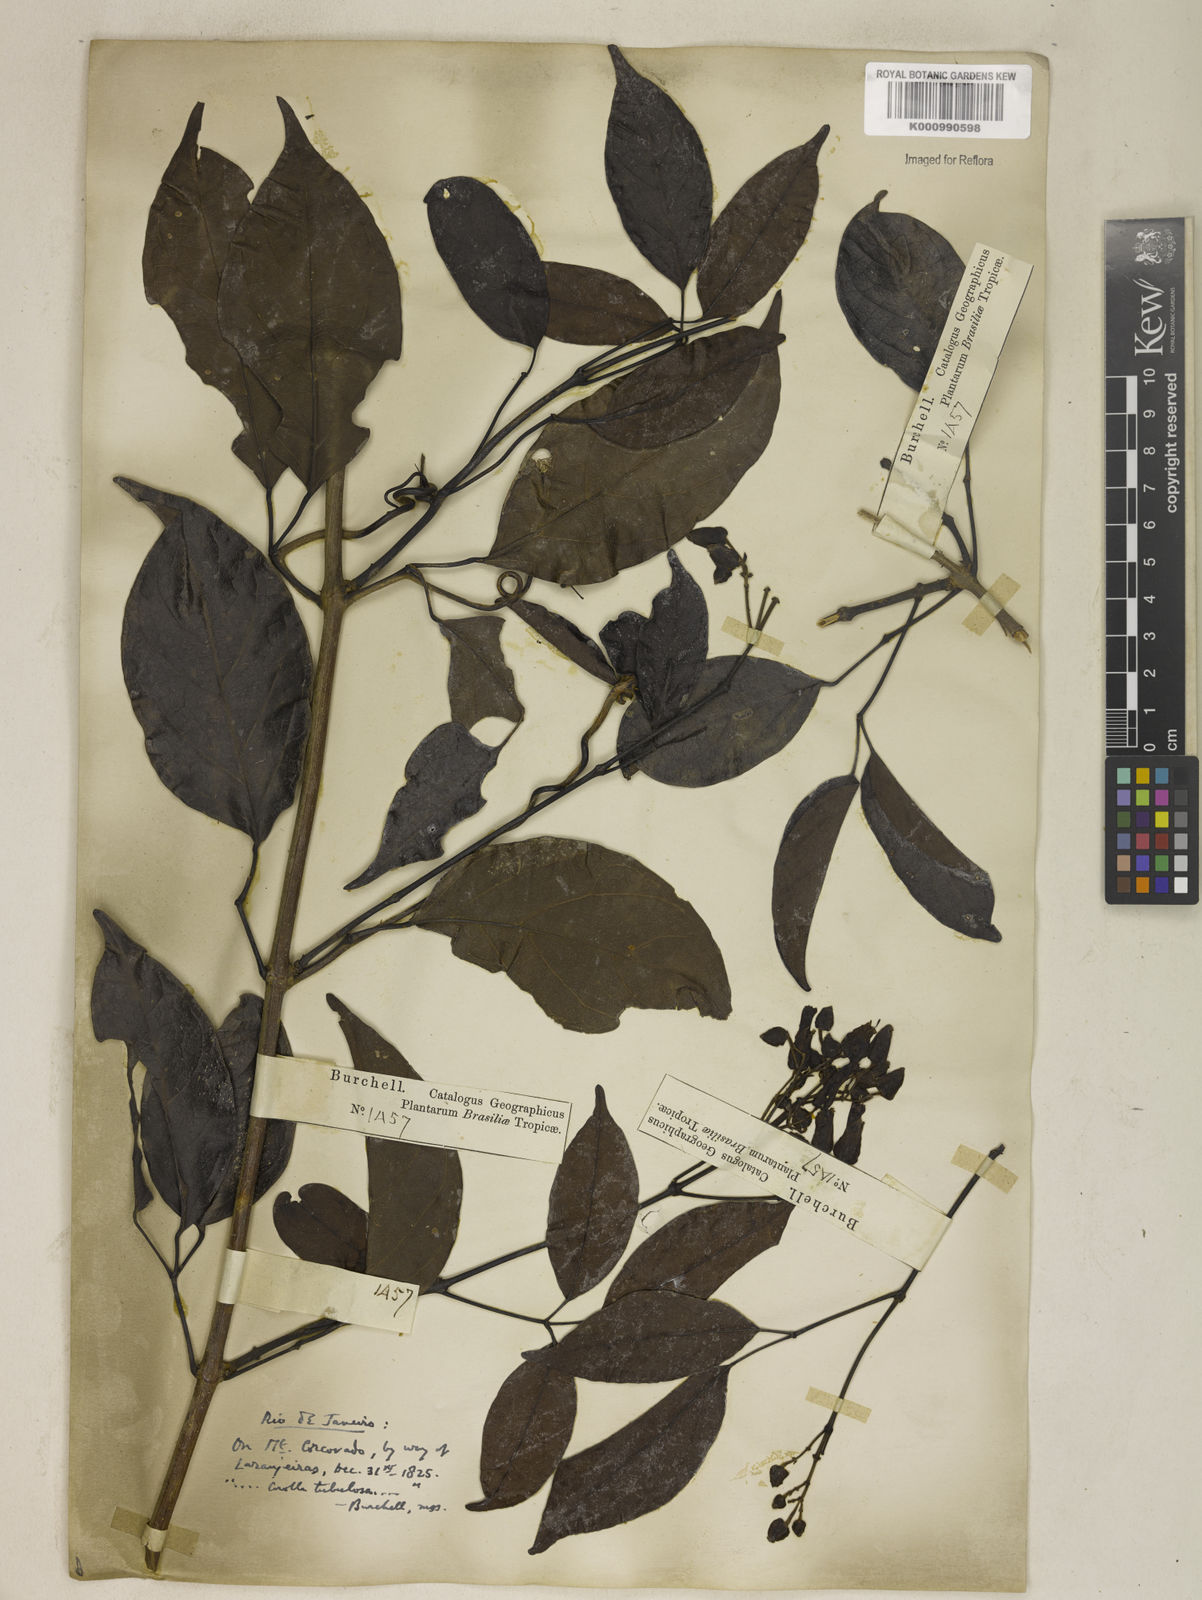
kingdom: Plantae
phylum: Tracheophyta
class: Magnoliopsida
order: Lamiales
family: Bignoniaceae
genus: Fridericia
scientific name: Fridericia speciosa
